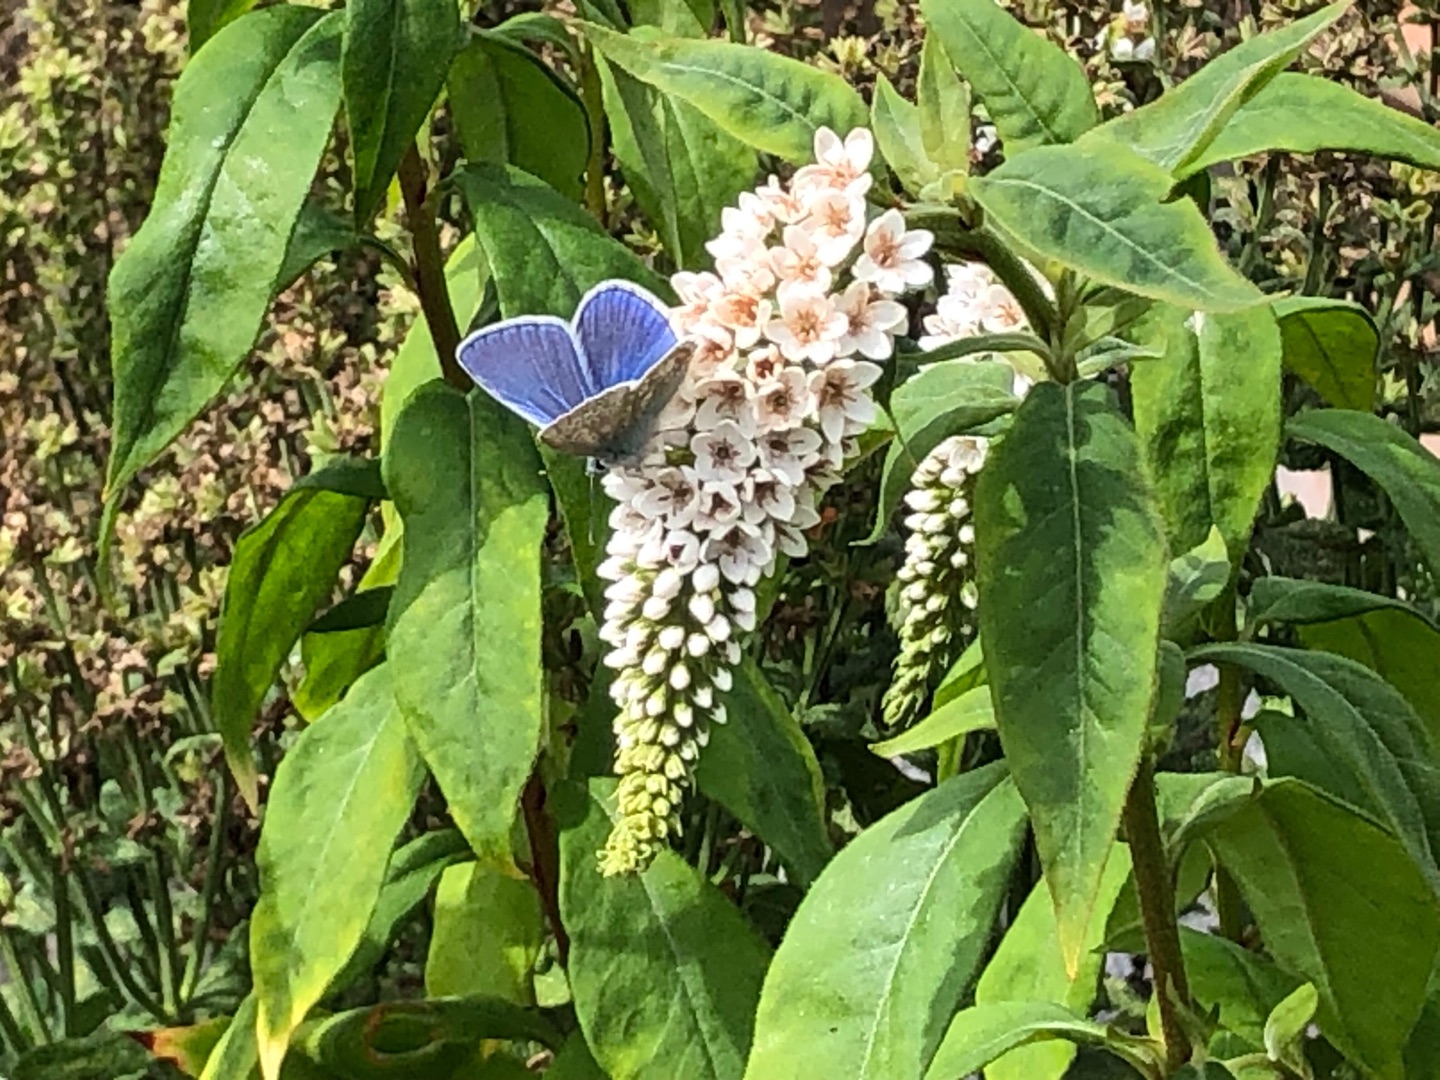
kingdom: Animalia
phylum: Arthropoda
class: Insecta
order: Lepidoptera
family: Lycaenidae
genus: Polyommatus
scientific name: Polyommatus icarus
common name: Almindelig blåfugl
